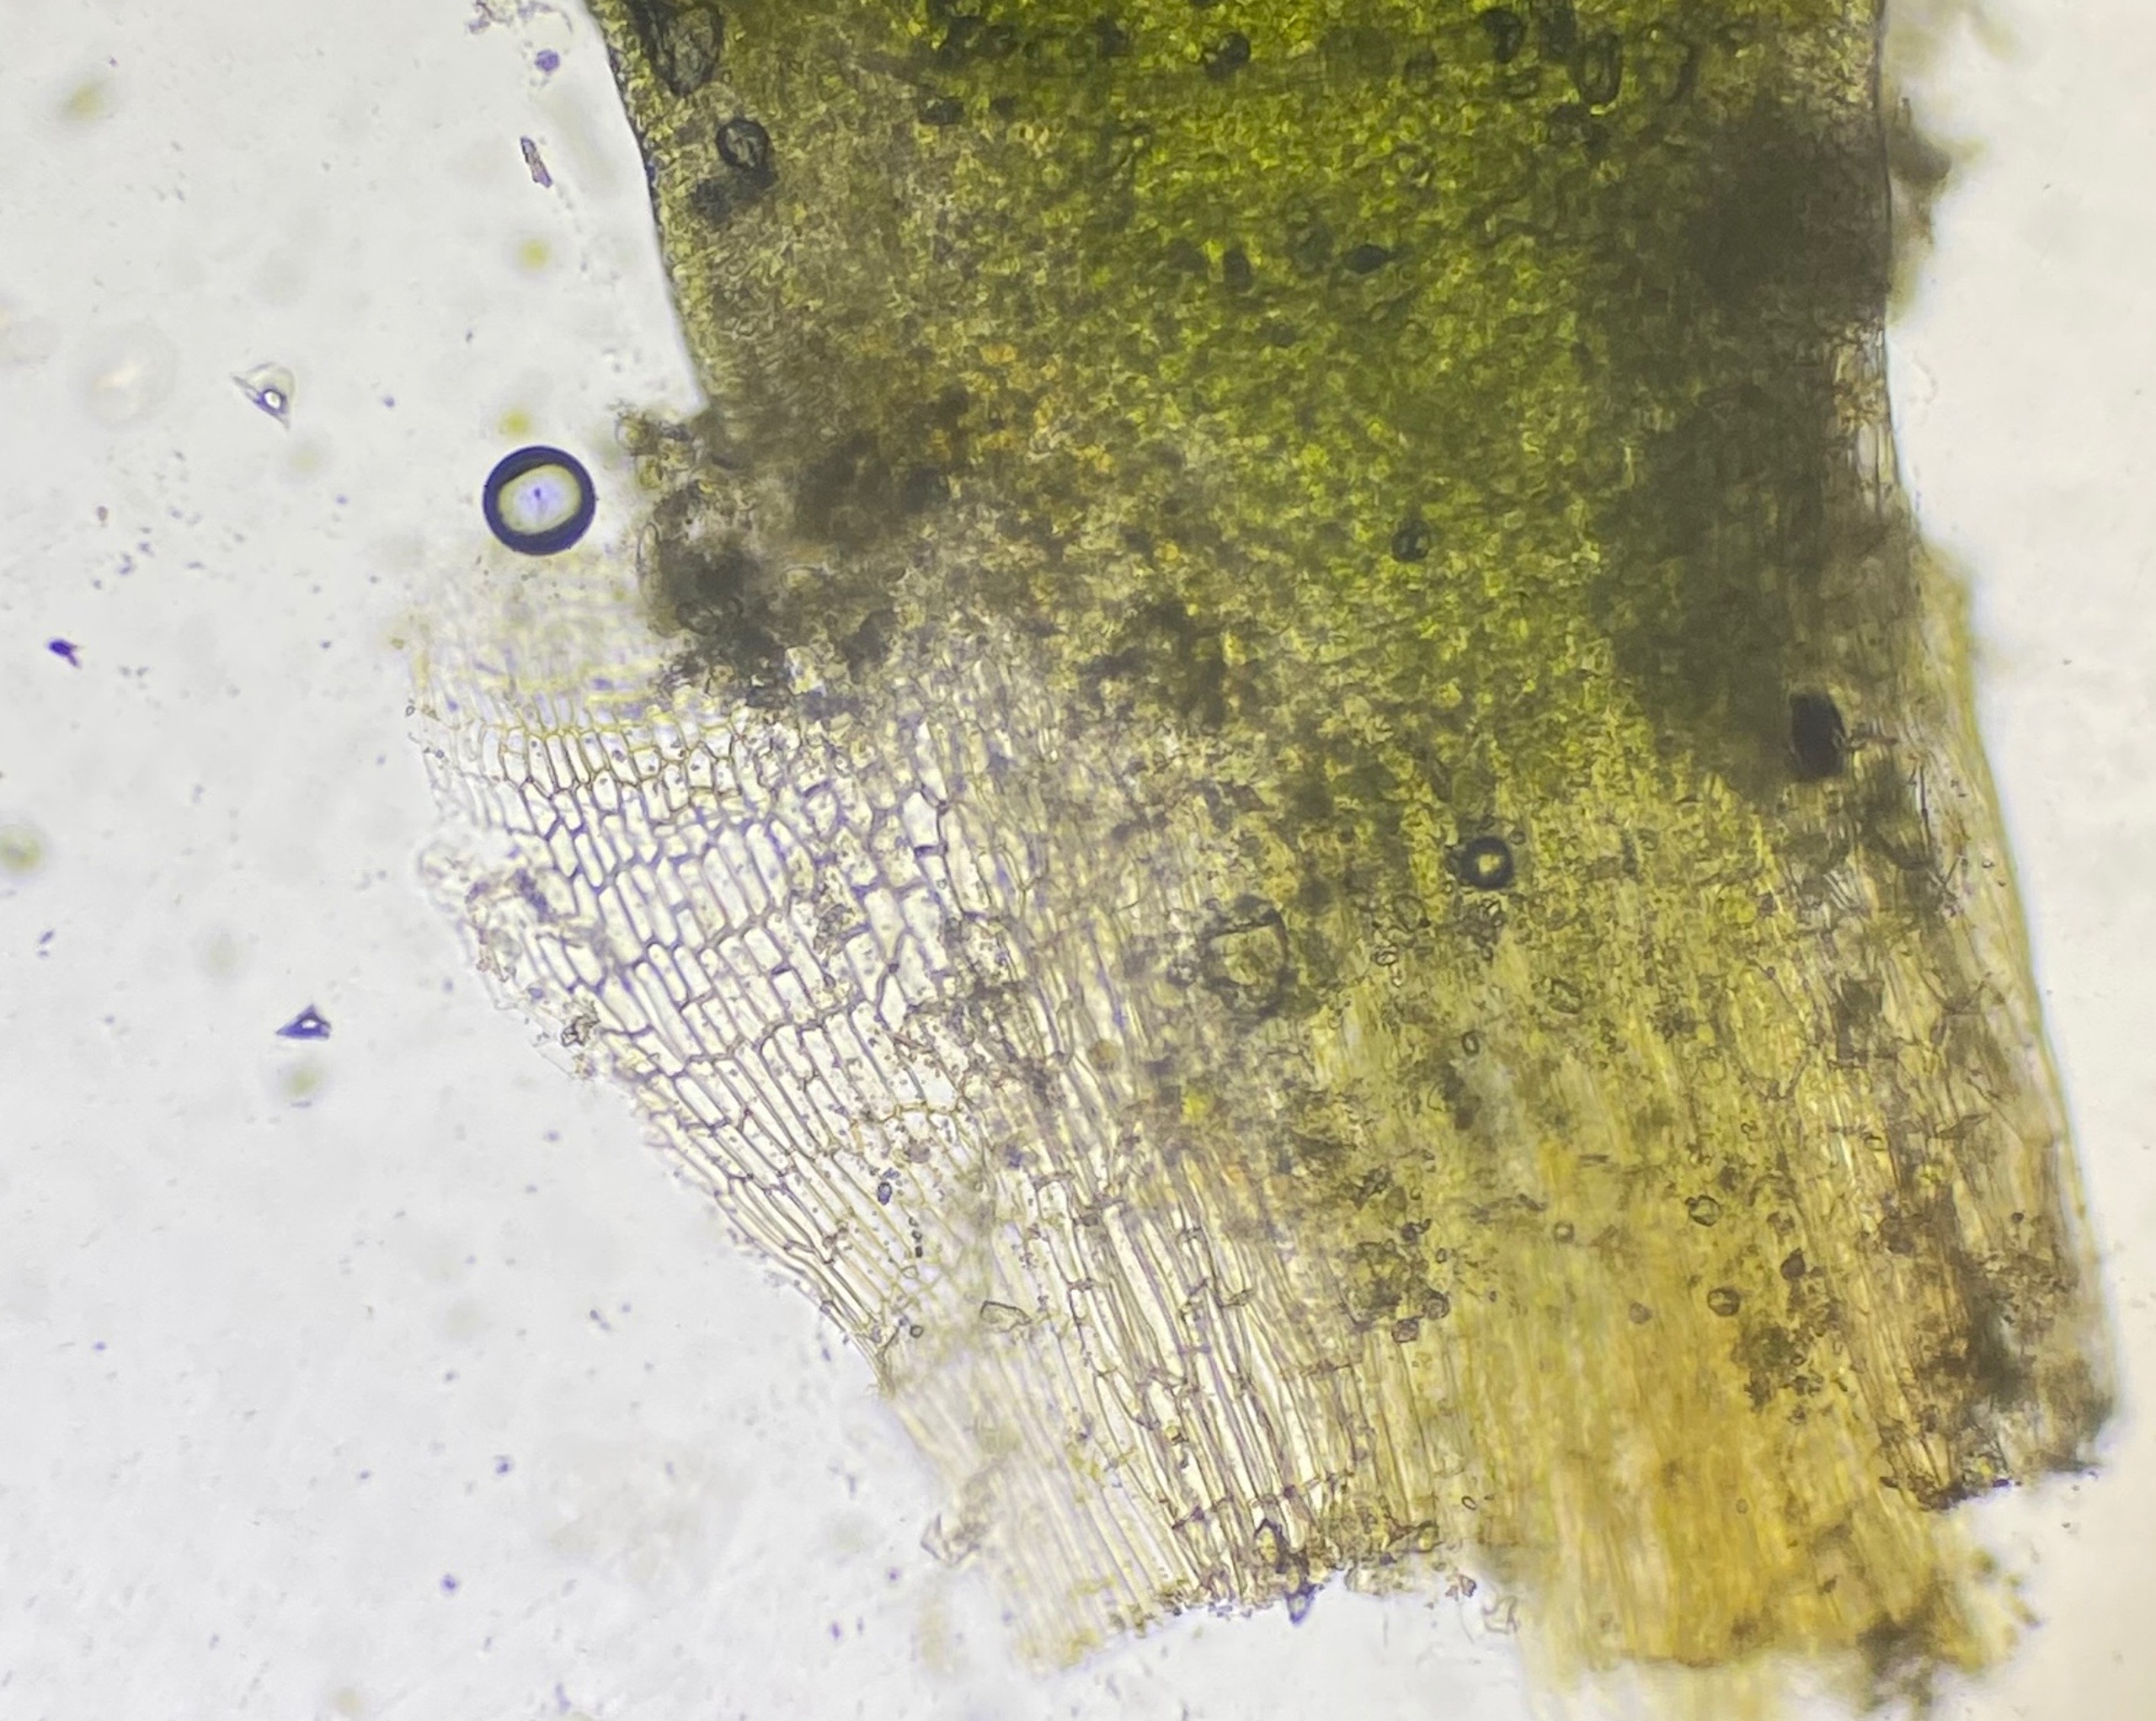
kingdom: Plantae
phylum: Bryophyta
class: Bryopsida
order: Pottiales
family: Pottiaceae
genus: Aloina
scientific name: Aloina
